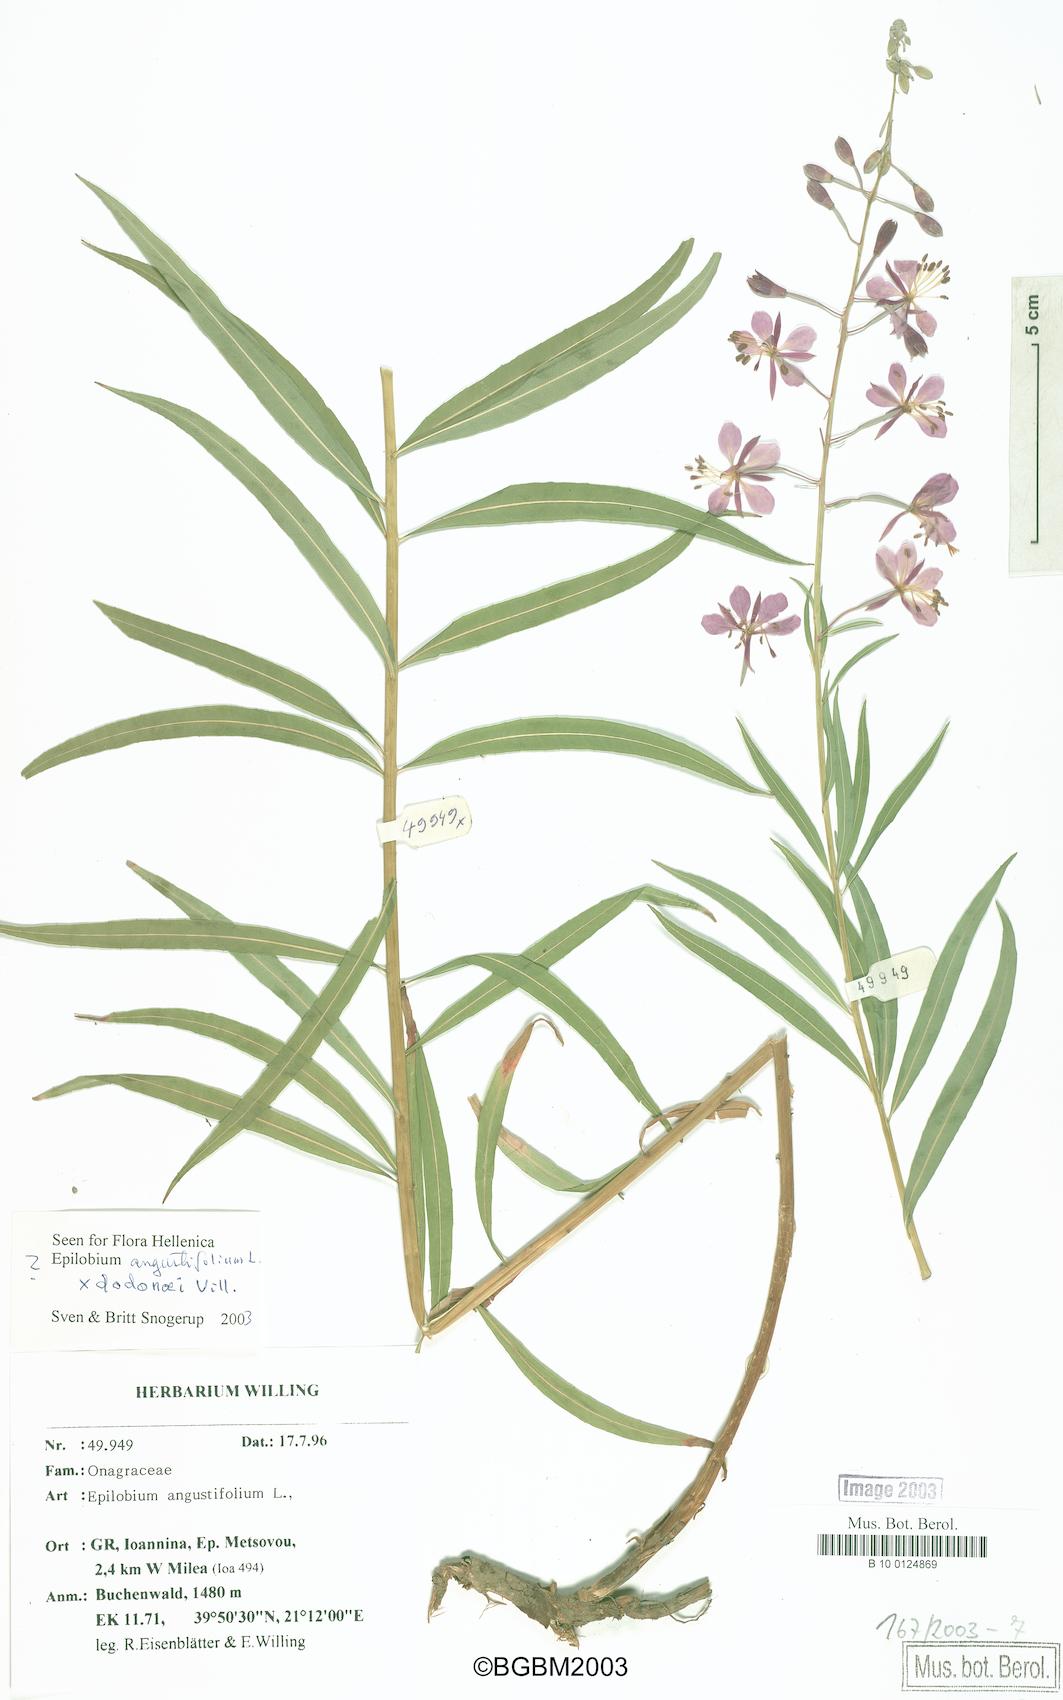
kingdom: Plantae
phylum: Tracheophyta
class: Magnoliopsida
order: Myrtales
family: Onagraceae
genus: Chamaenerion
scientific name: Chamaenerion angustifolium
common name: Fireweed
